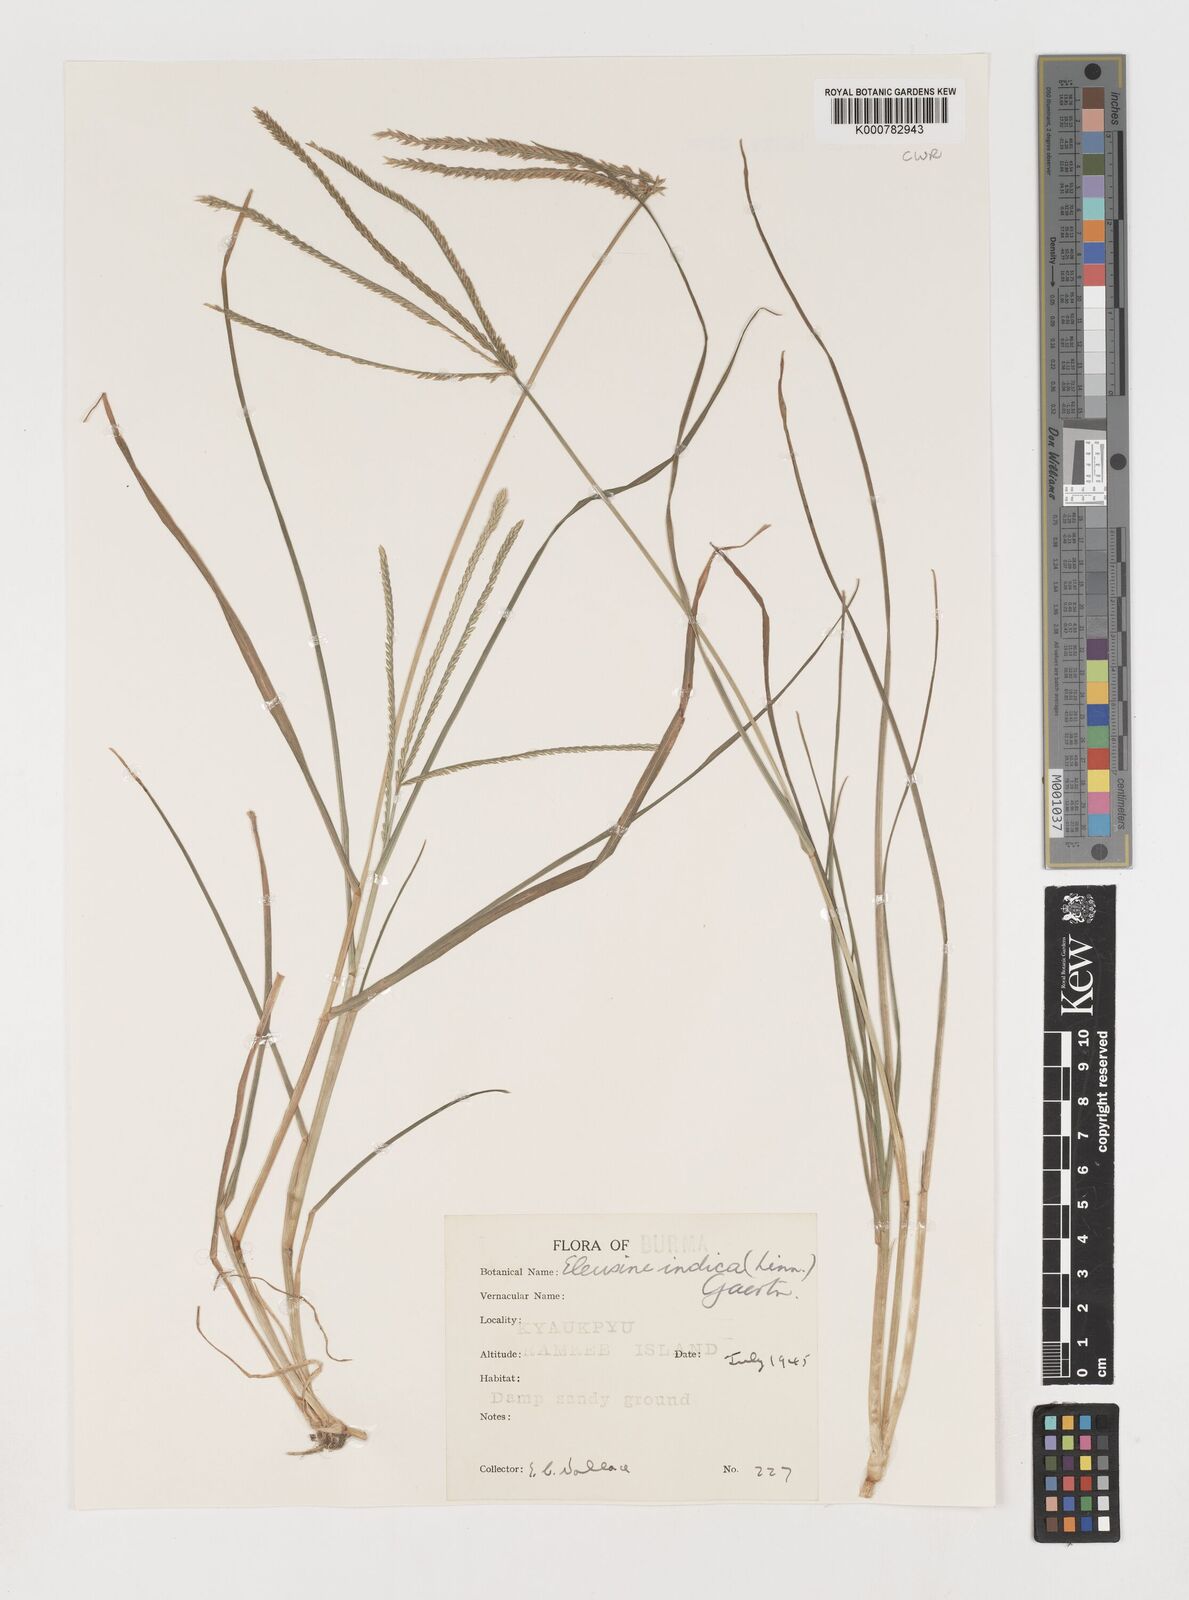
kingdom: Plantae
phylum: Tracheophyta
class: Liliopsida
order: Poales
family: Poaceae
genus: Eleusine
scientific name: Eleusine indica
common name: Yard-grass
